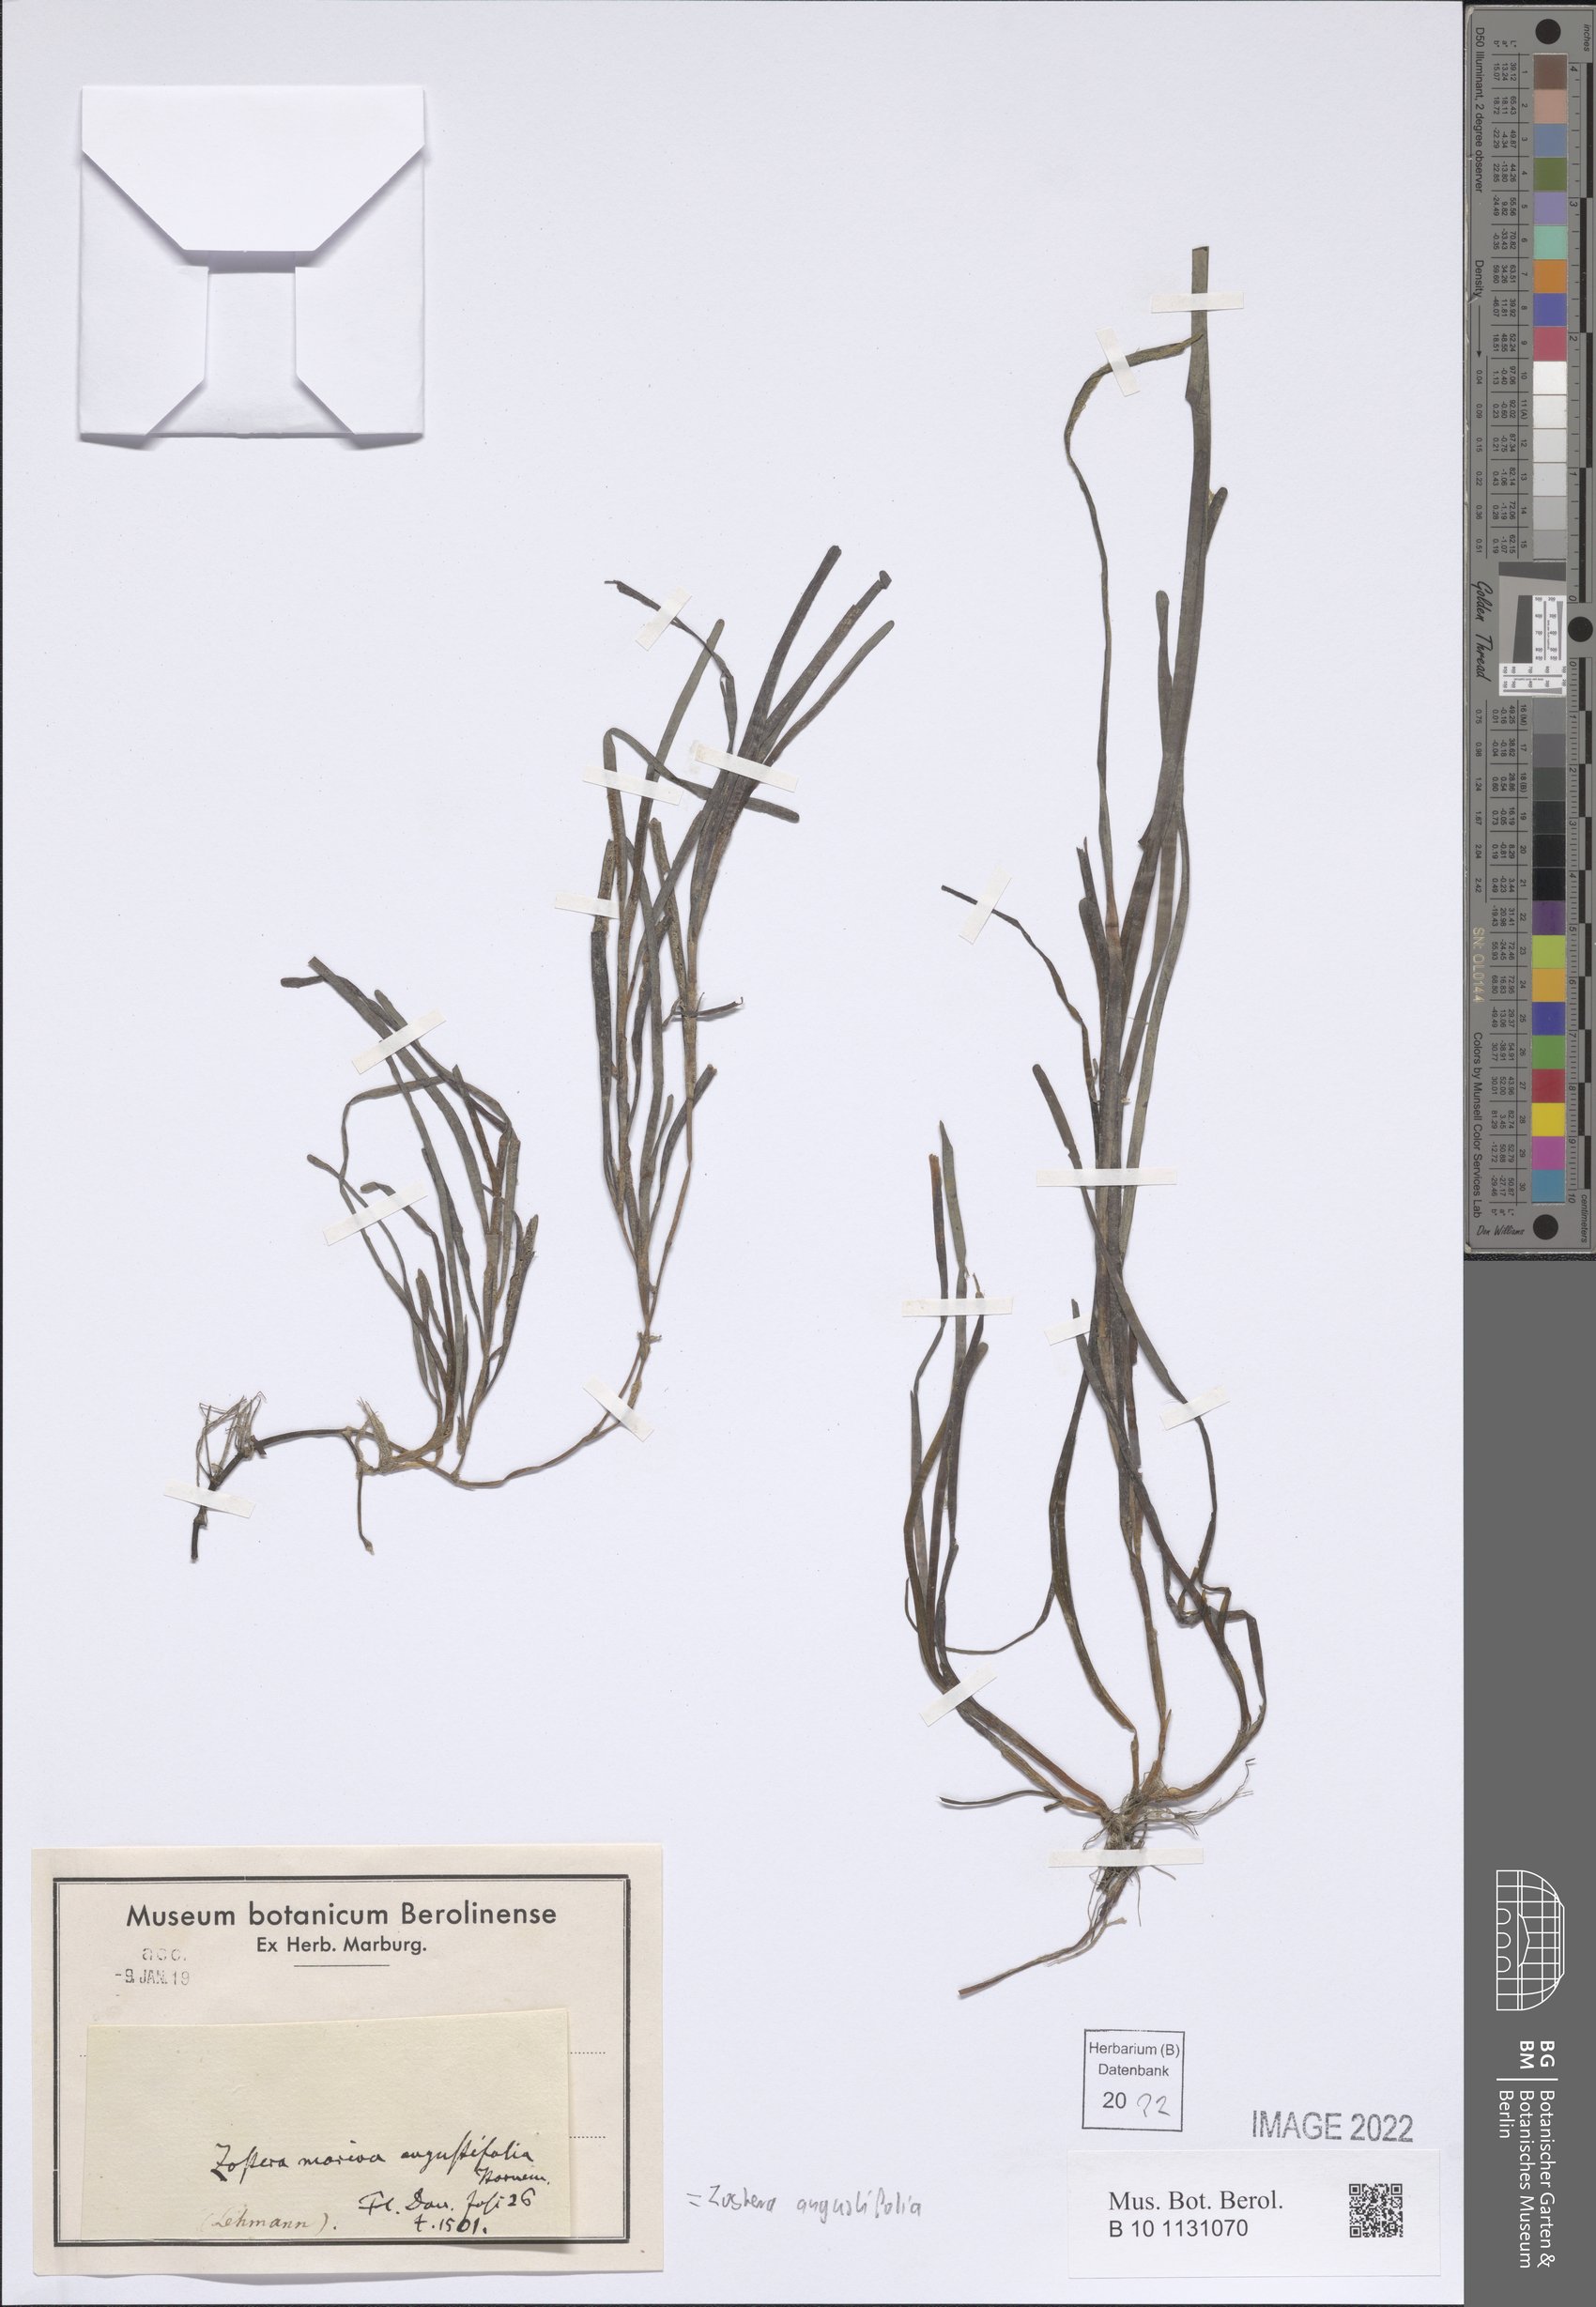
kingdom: Plantae
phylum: Tracheophyta
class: Liliopsida
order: Alismatales
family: Zosteraceae
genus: Zostera
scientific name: Zostera angustifolia
